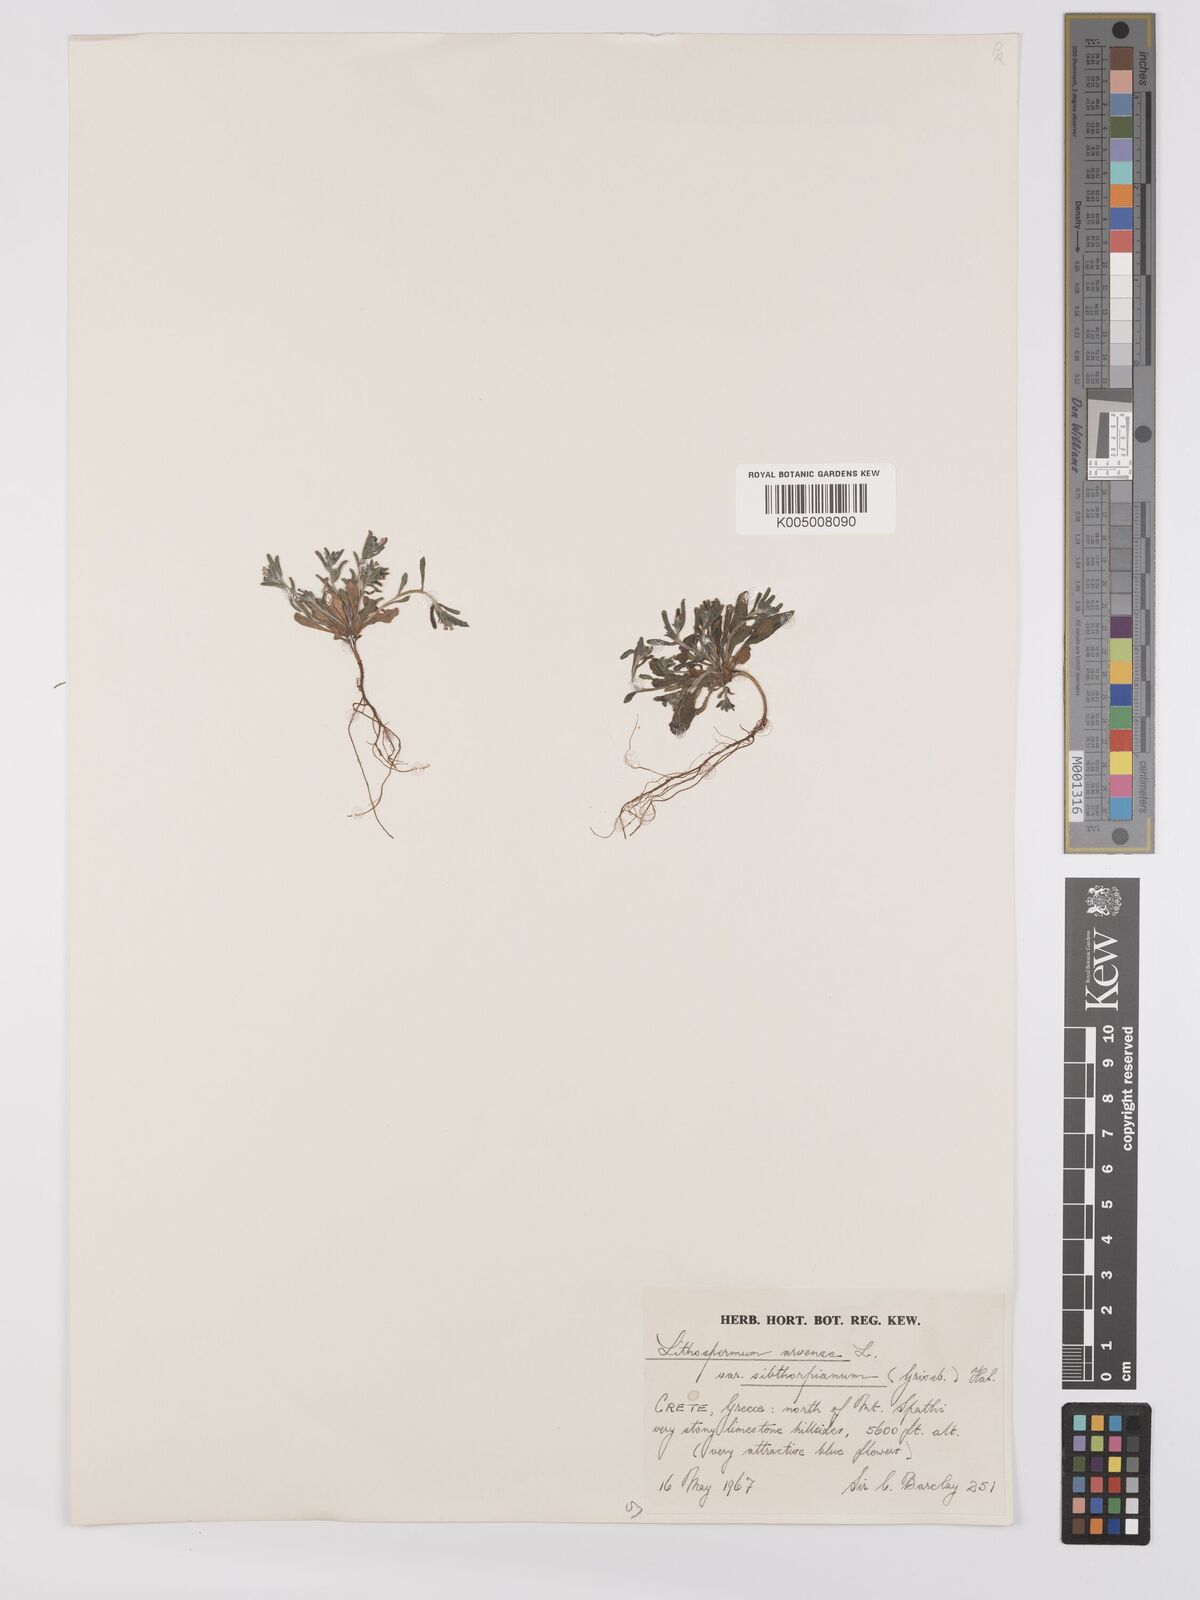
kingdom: Plantae
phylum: Tracheophyta
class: Magnoliopsida
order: Boraginales
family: Boraginaceae
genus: Buglossoides
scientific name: Buglossoides incrassata
